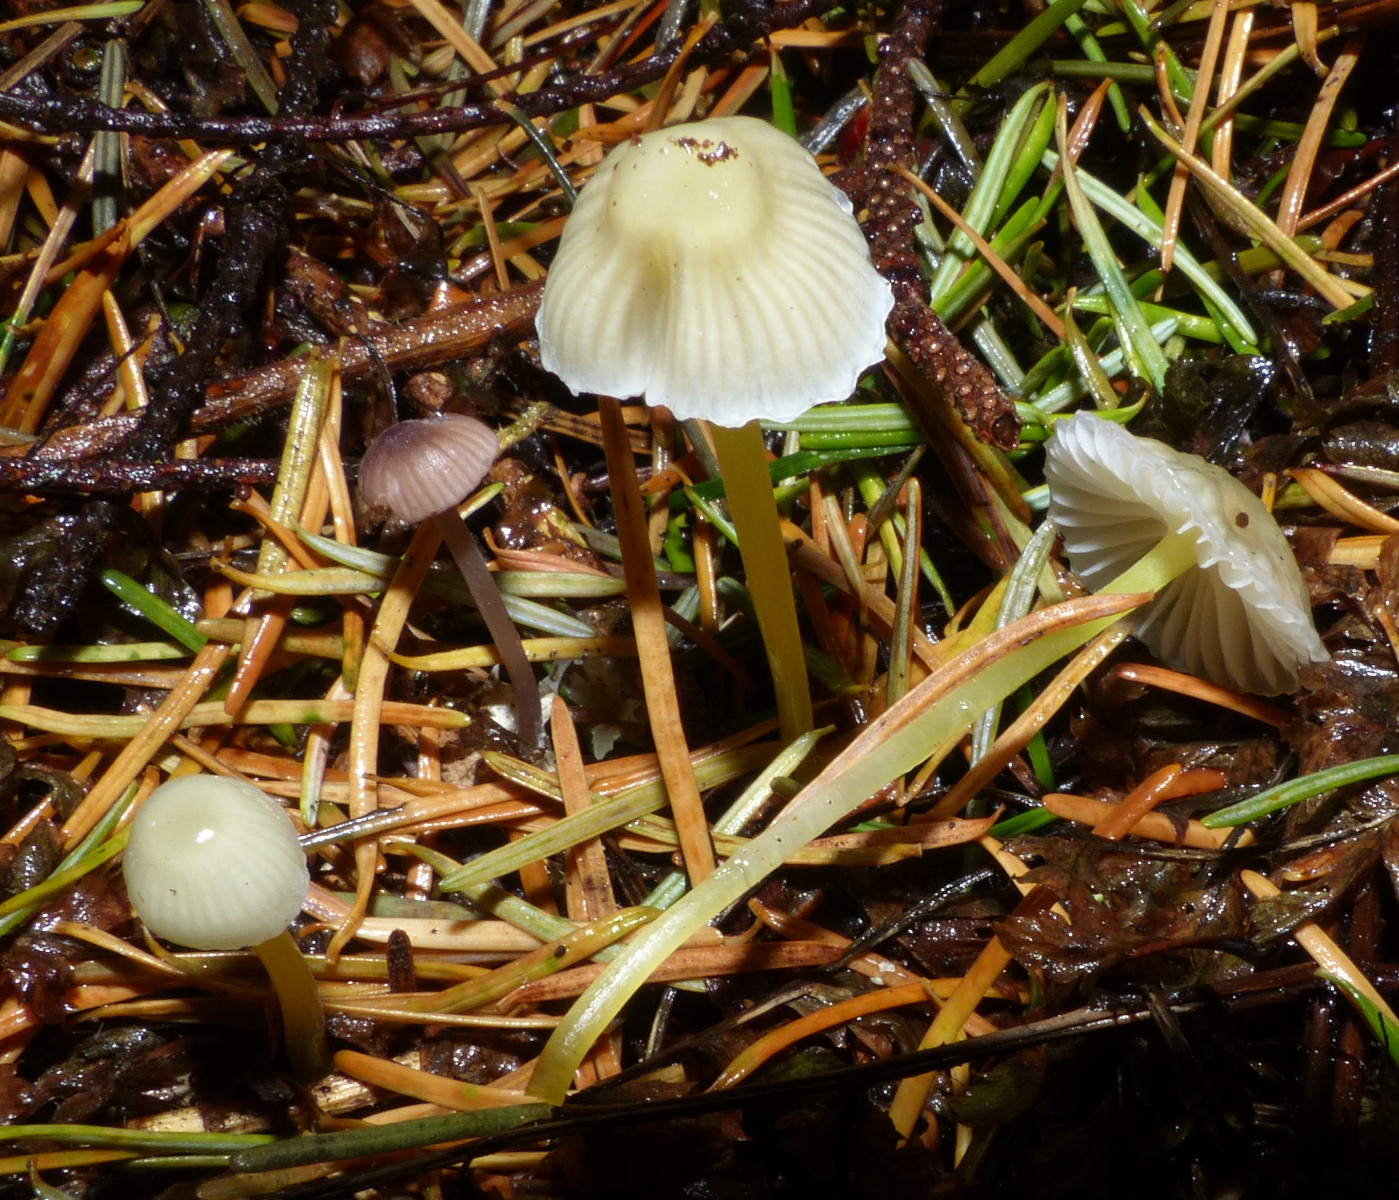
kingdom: Fungi
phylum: Basidiomycota
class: Agaricomycetes
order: Agaricales
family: Mycenaceae
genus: Mycena
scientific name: Mycena epipterygia
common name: gulstokket huesvamp
